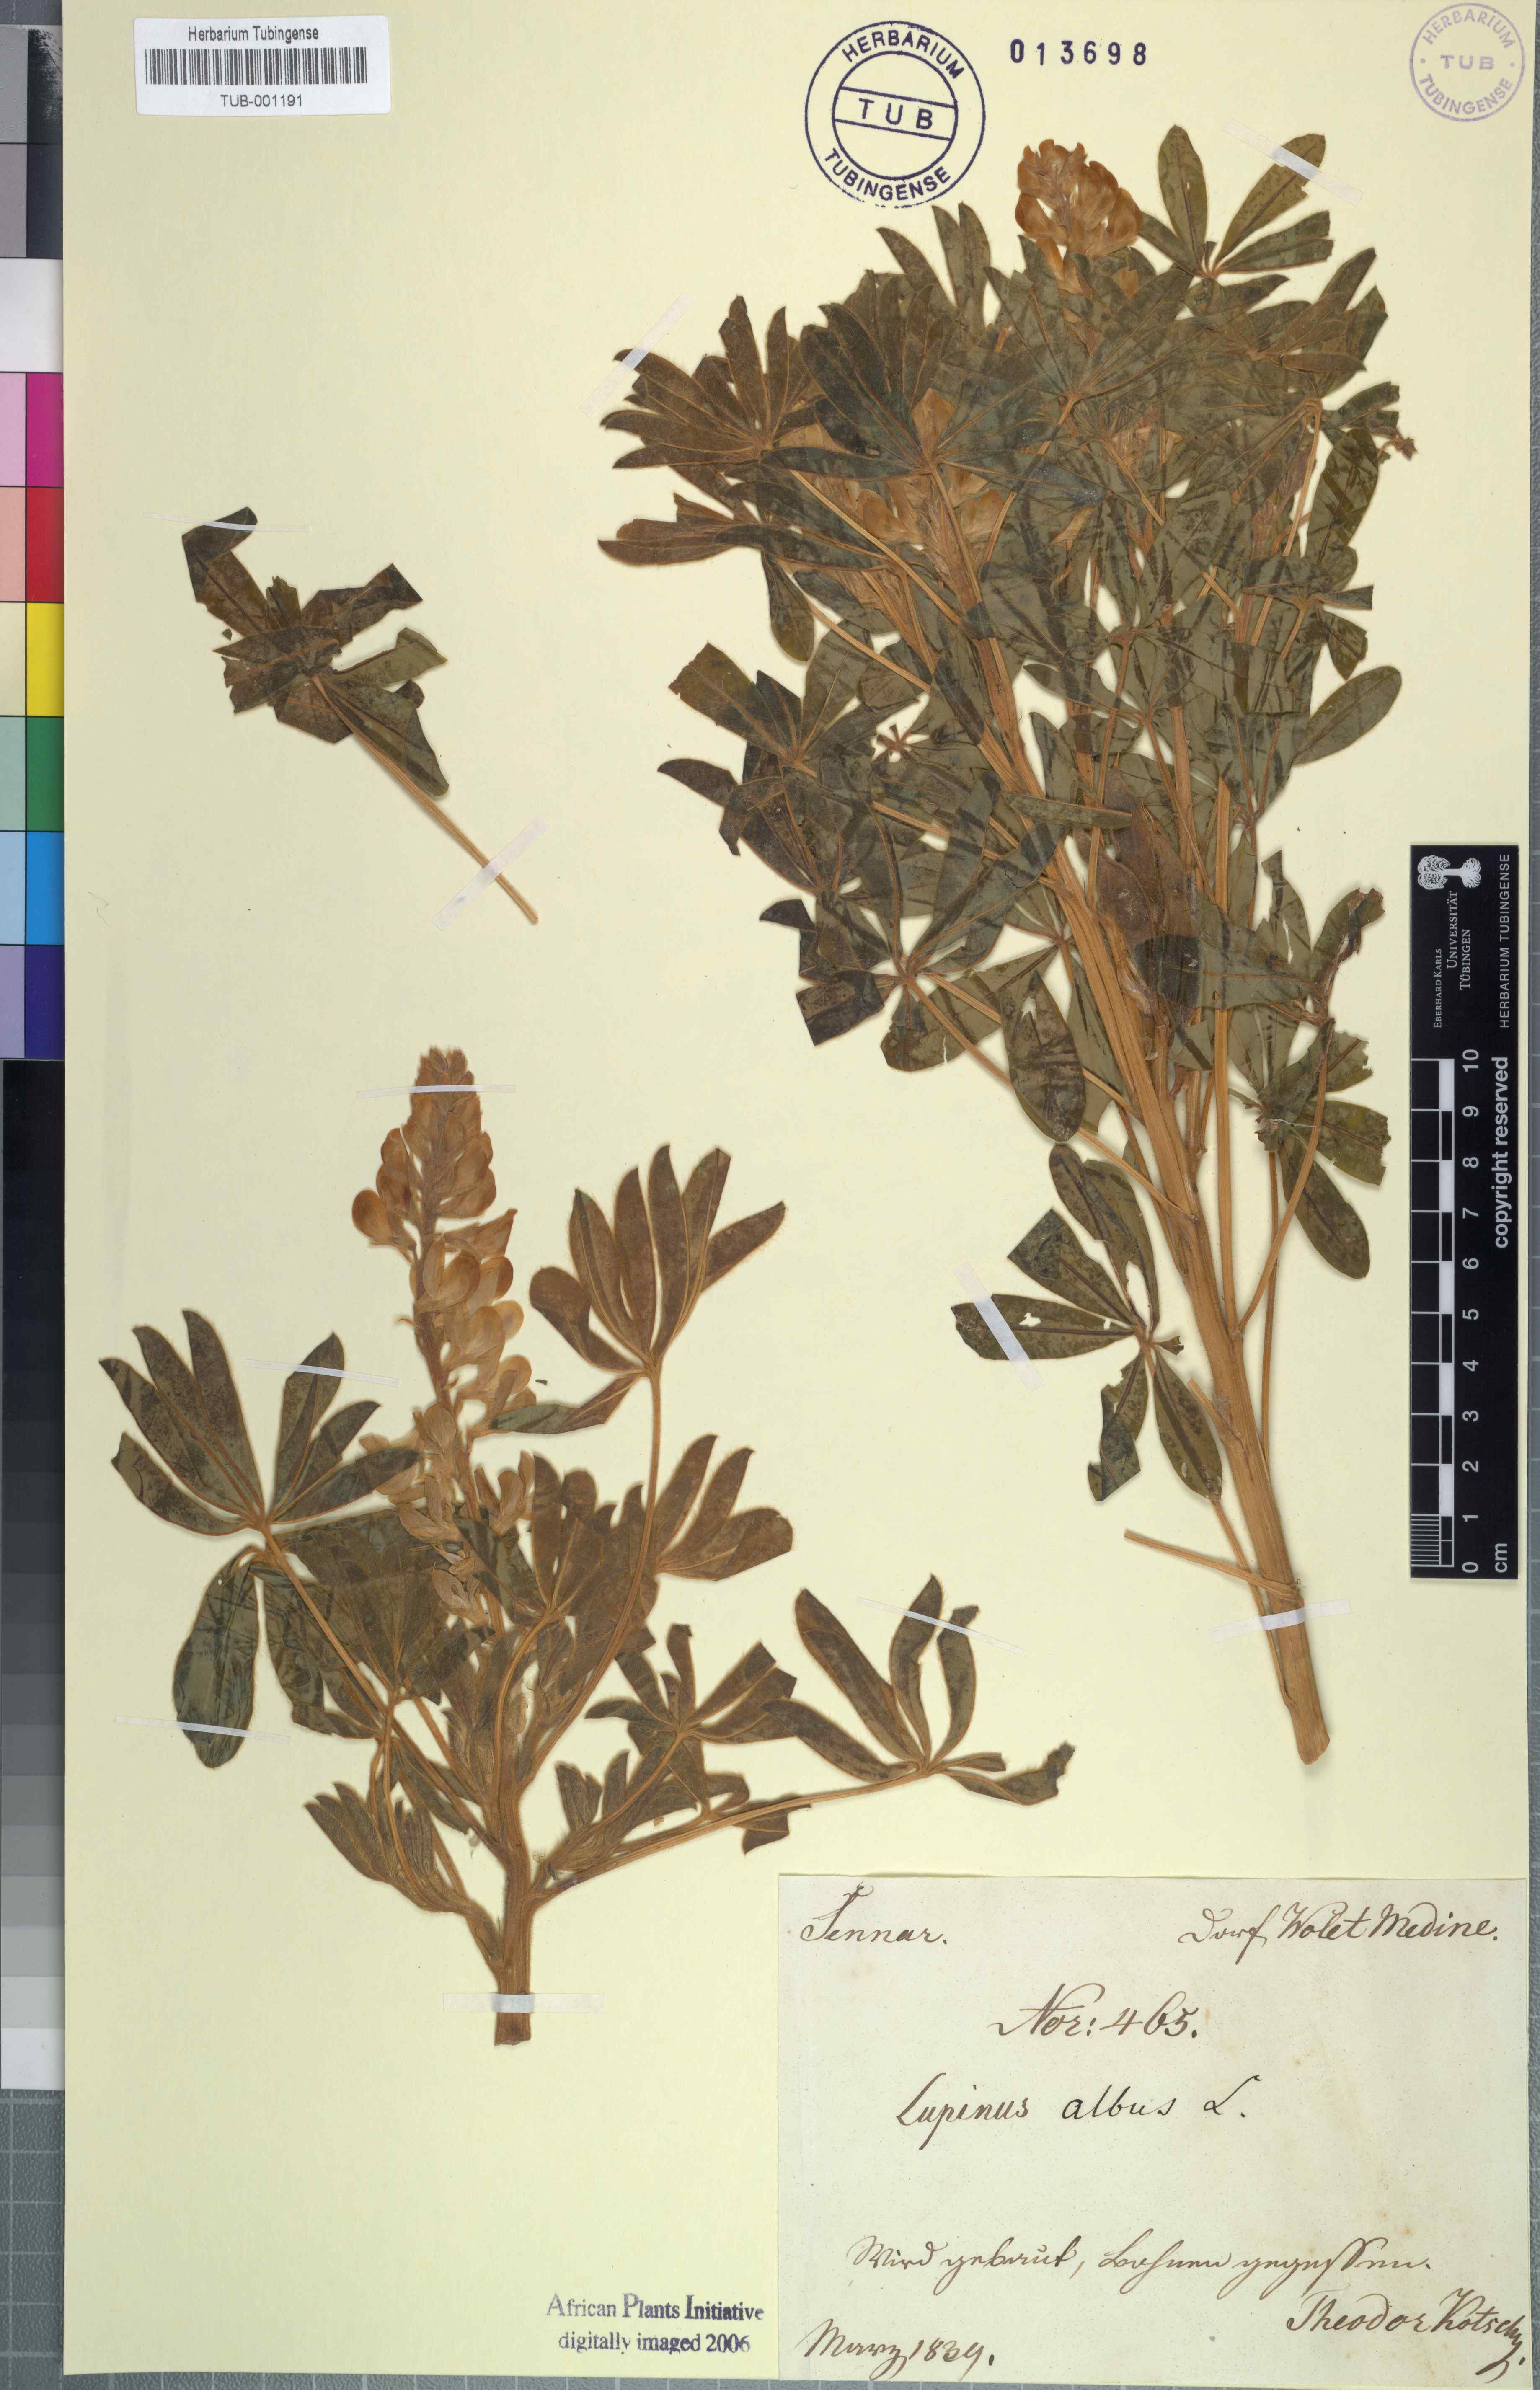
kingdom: Plantae
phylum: Tracheophyta
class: Magnoliopsida
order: Fabales
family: Fabaceae
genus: Lupinus
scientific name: Lupinus albus
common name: White lupin
